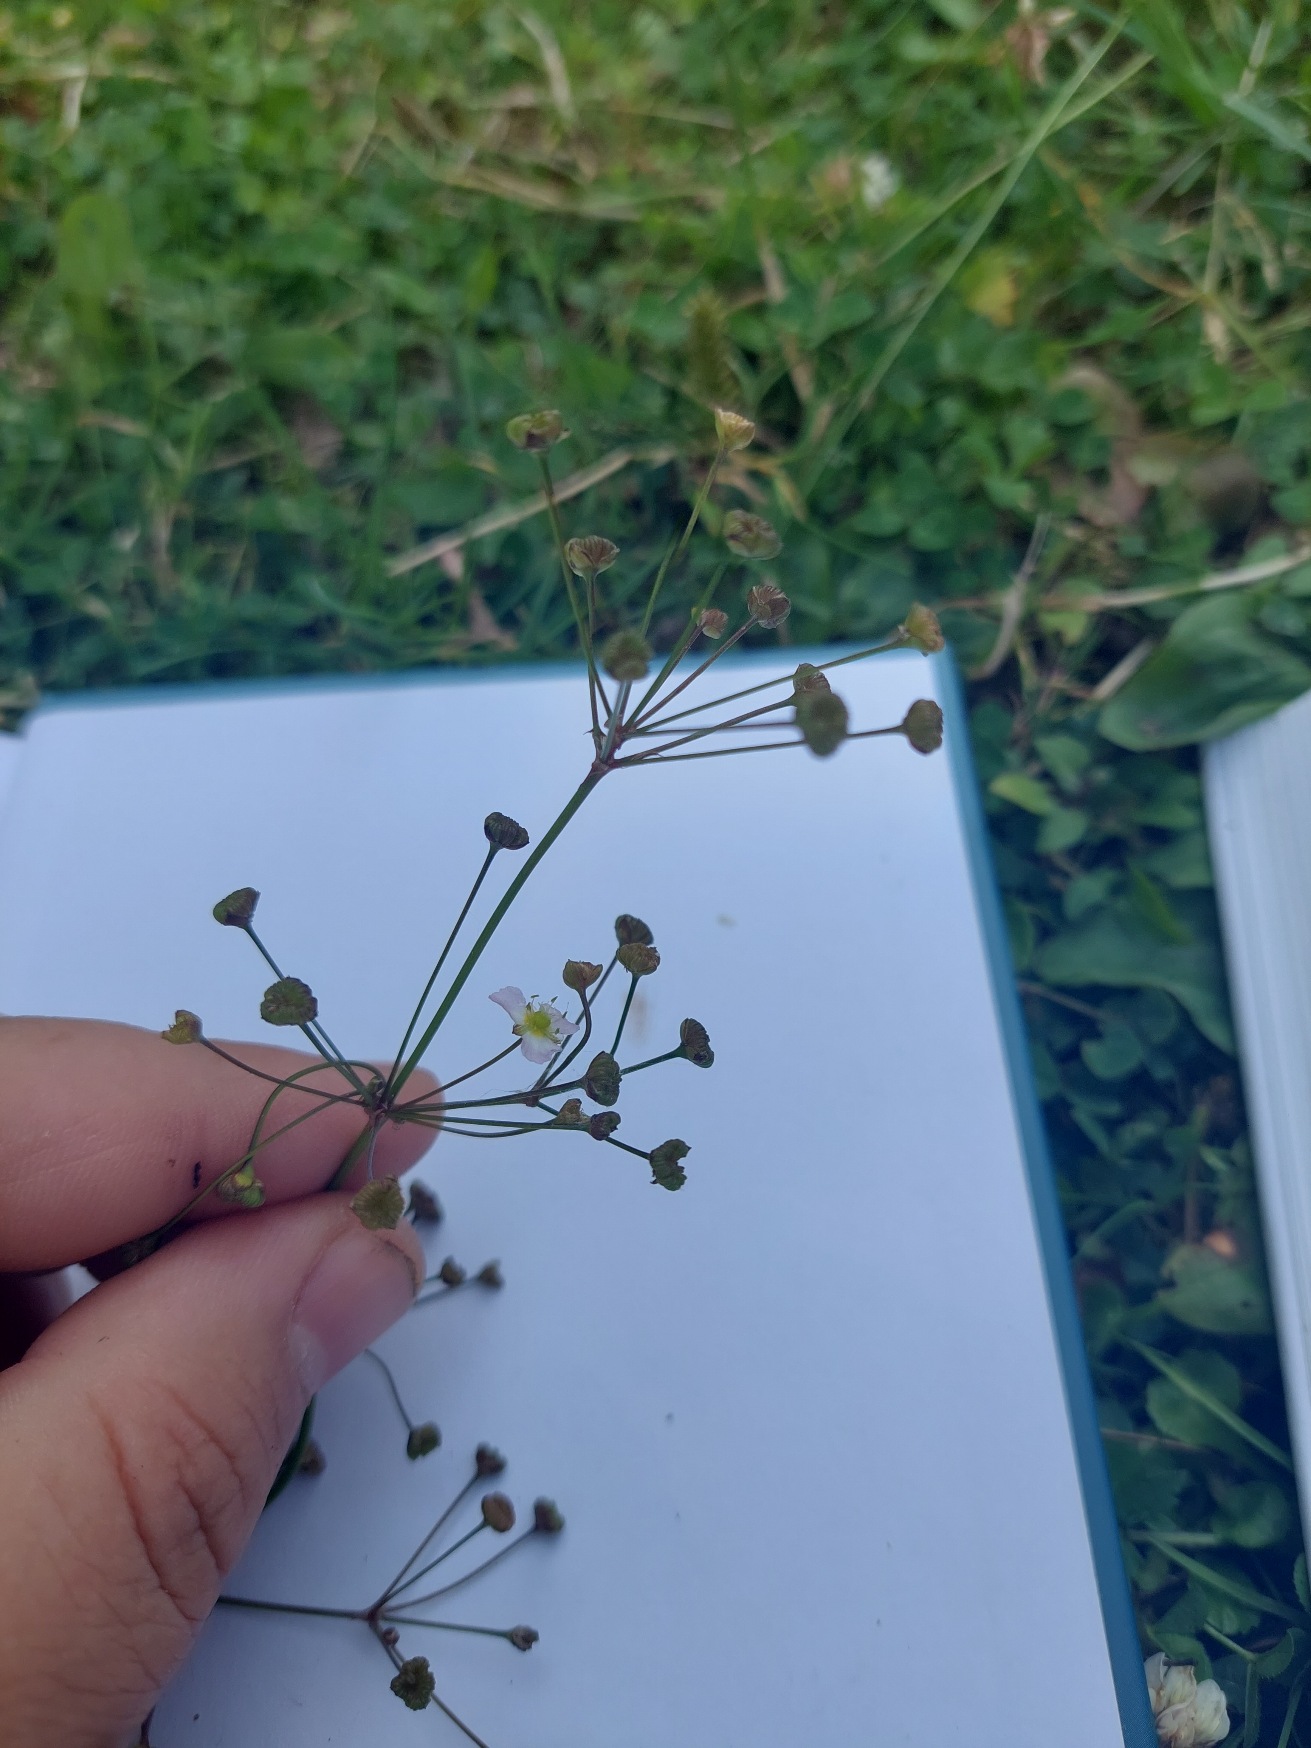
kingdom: Plantae
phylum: Tracheophyta
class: Liliopsida
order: Alismatales
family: Alismataceae
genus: Alisma
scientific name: Alisma plantago-aquatica
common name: Vejbred-skeblad
